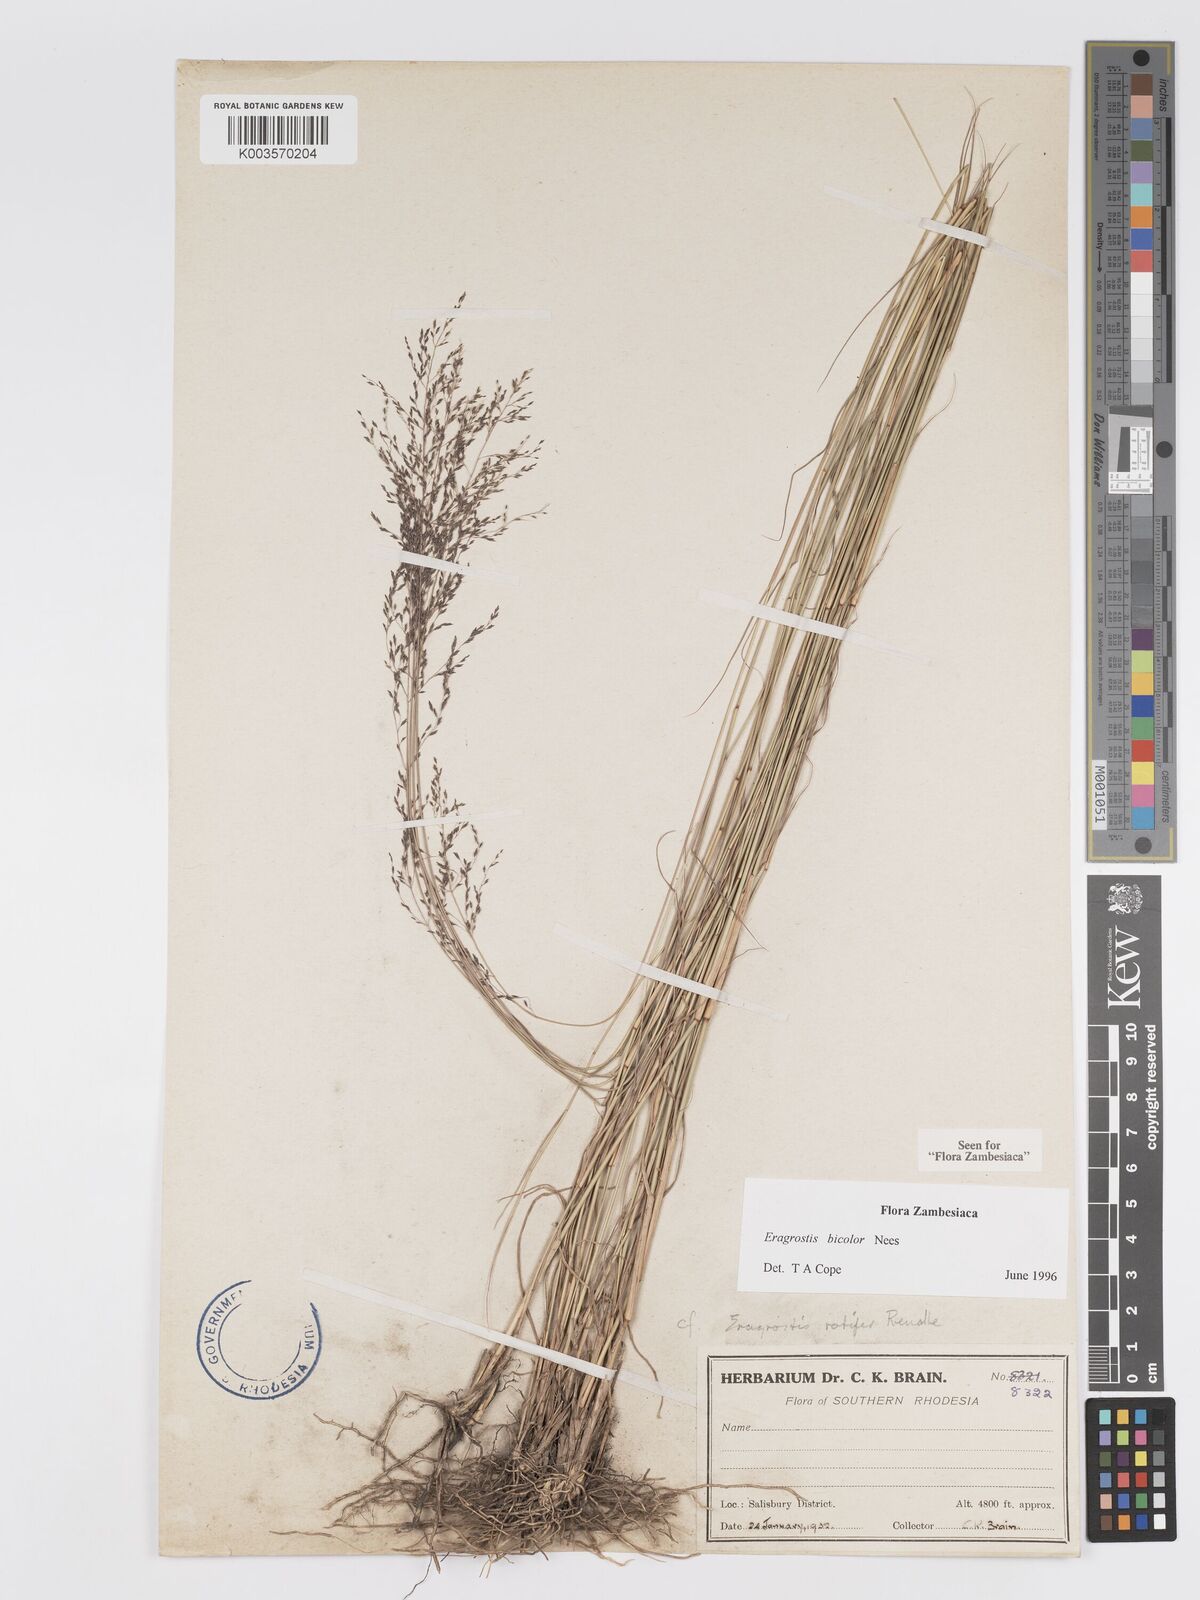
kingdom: Plantae
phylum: Tracheophyta
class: Liliopsida
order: Poales
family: Poaceae
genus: Eragrostis
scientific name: Eragrostis bicolor
